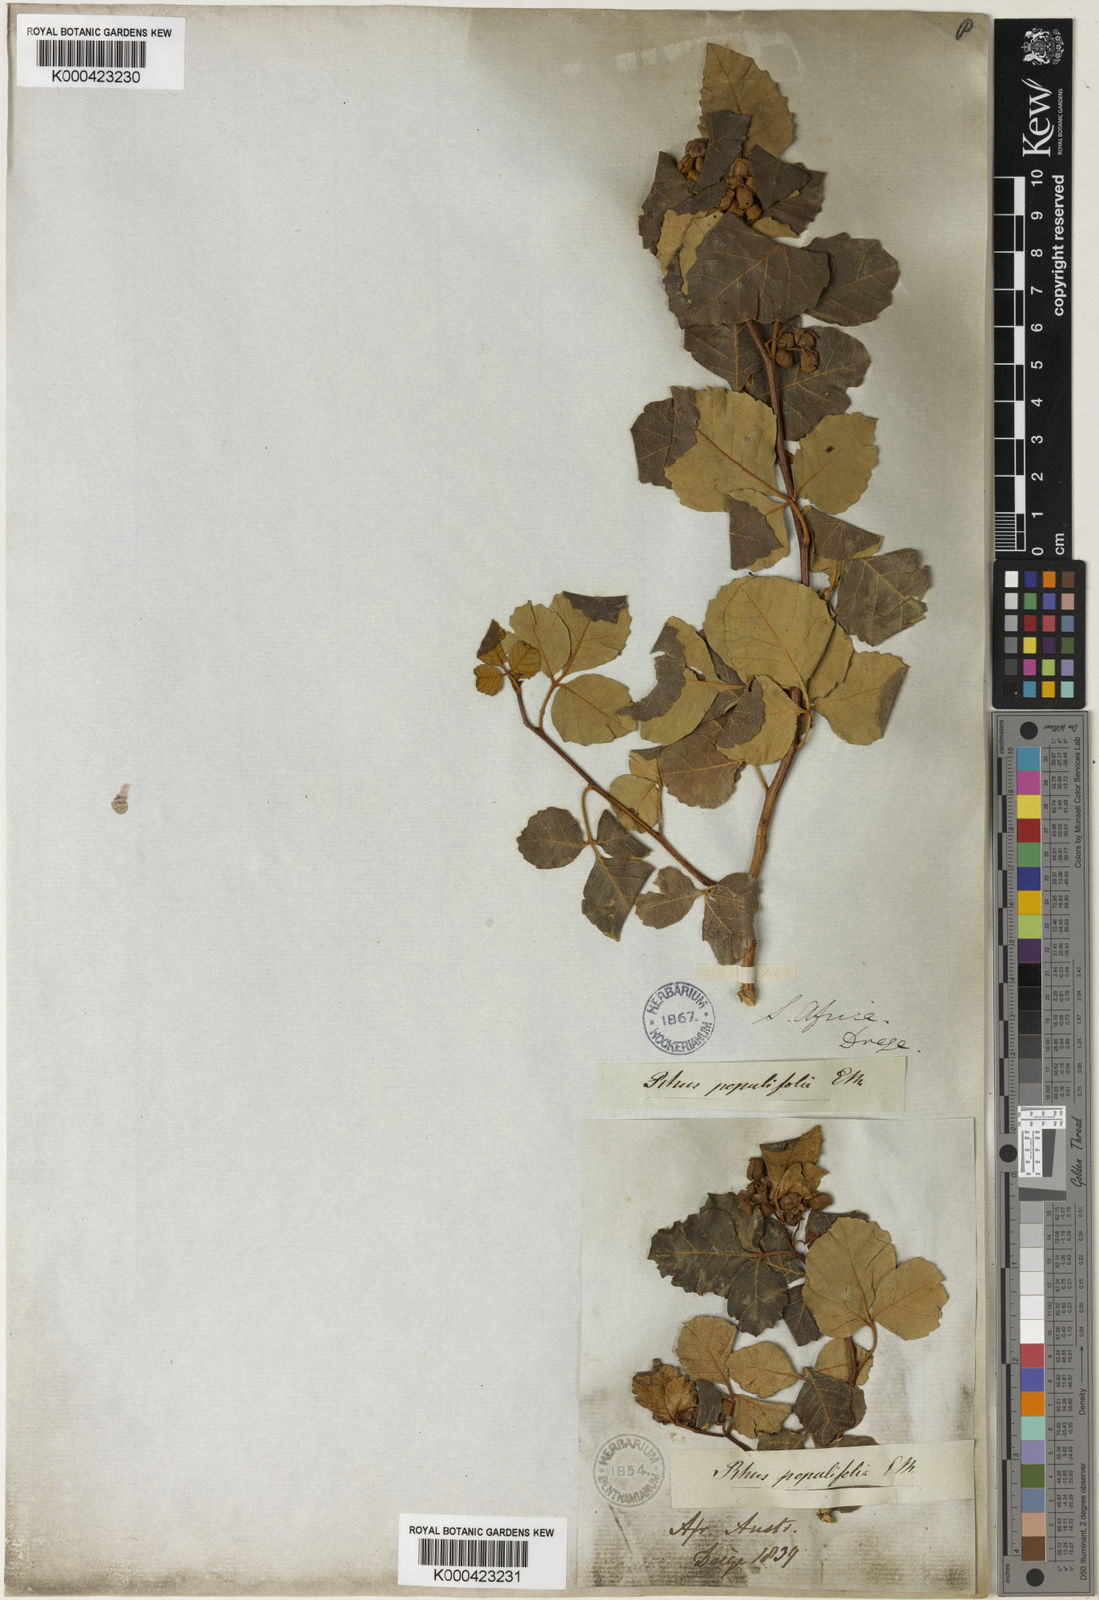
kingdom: Plantae
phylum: Tracheophyta
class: Magnoliopsida
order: Sapindales
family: Anacardiaceae
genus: Searsia
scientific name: Searsia populifolia
